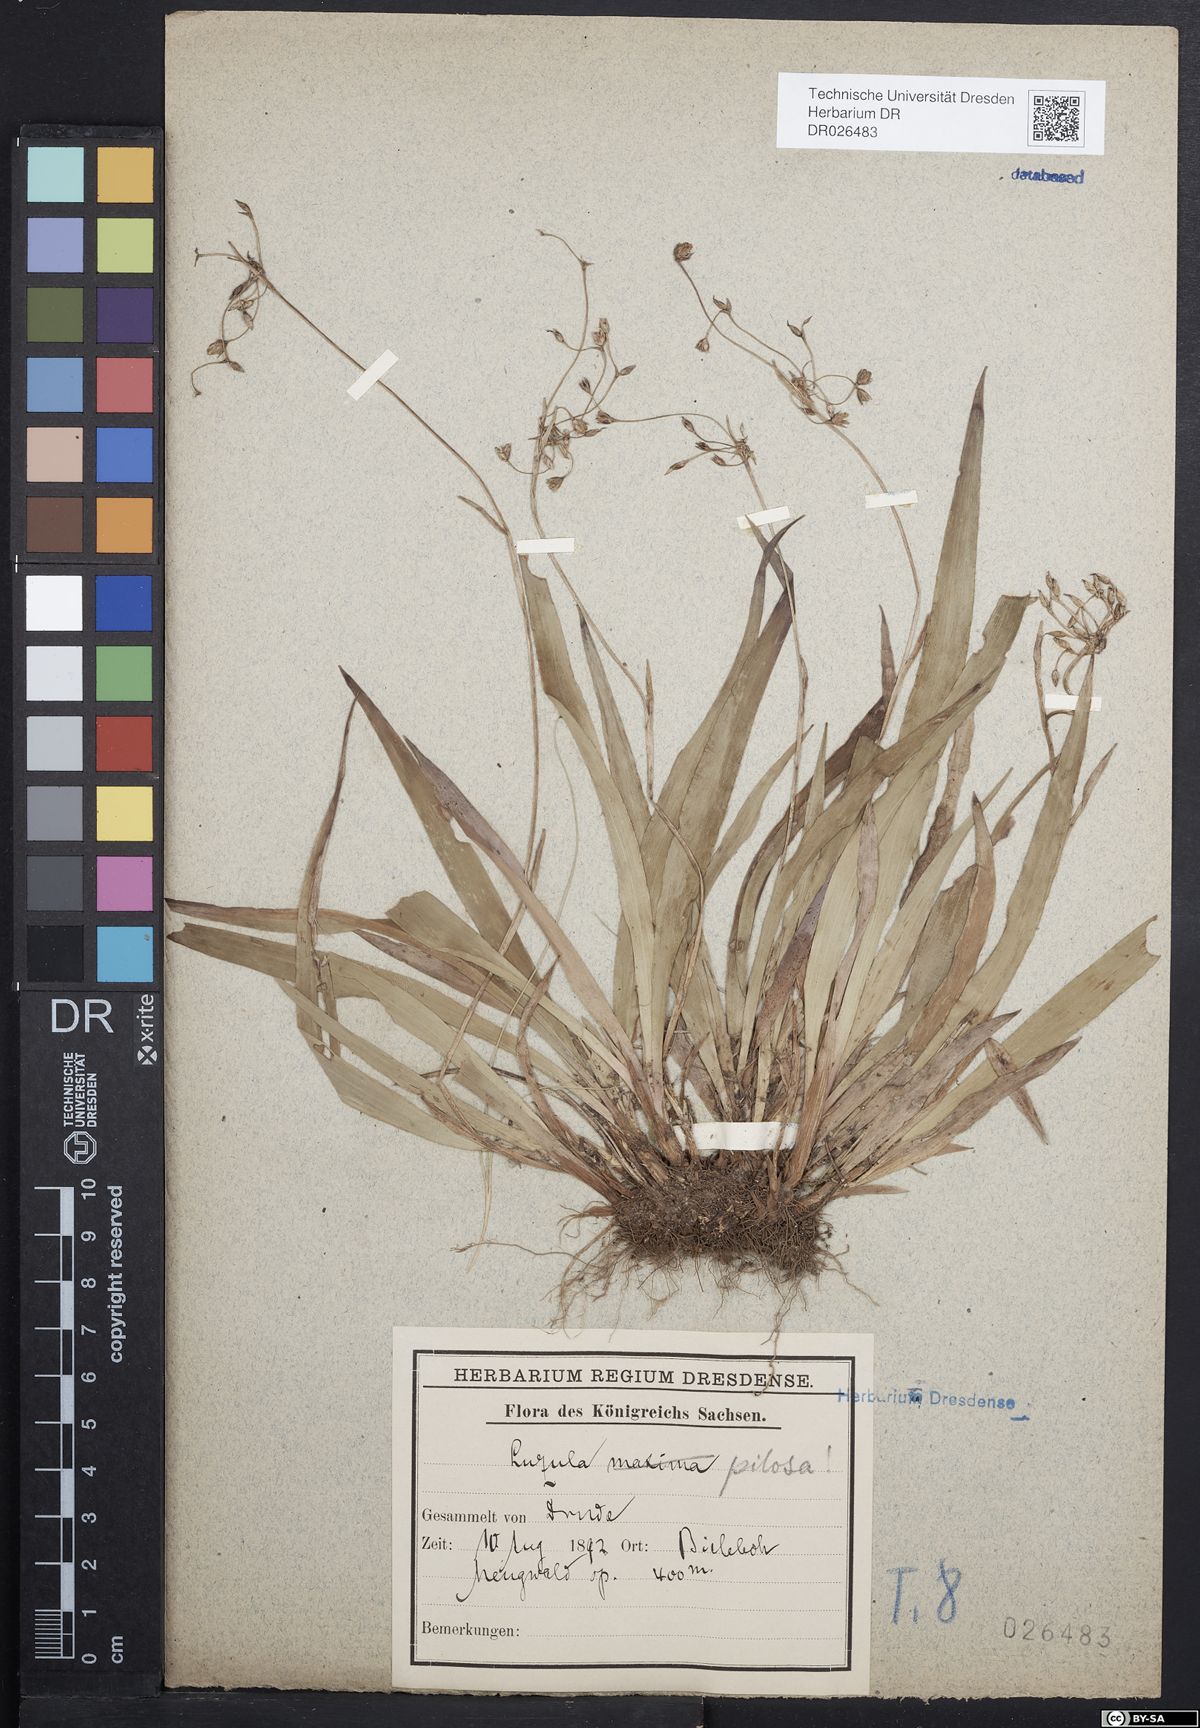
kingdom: Plantae
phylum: Tracheophyta
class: Liliopsida
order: Poales
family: Juncaceae
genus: Luzula
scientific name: Luzula pilosa
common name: Hairy wood-rush
